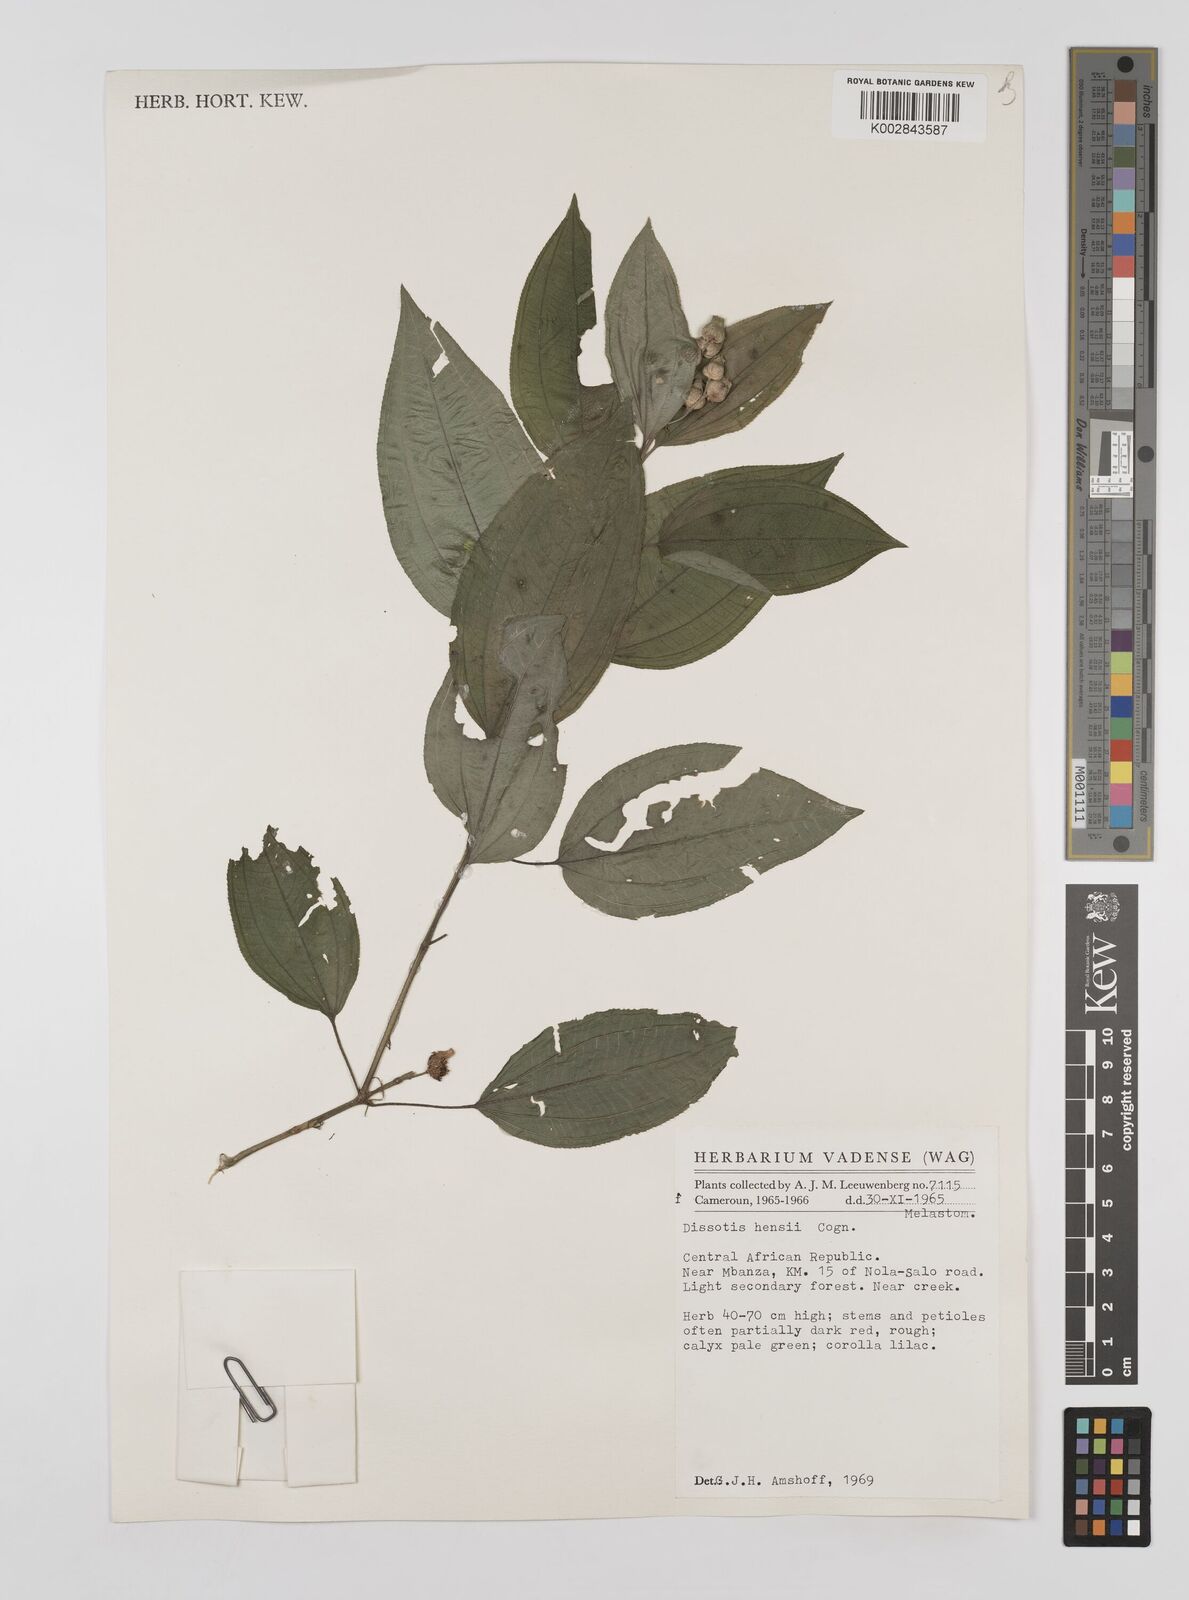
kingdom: Plantae
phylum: Tracheophyta
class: Magnoliopsida
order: Myrtales
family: Melastomataceae
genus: Dupineta
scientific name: Dupineta hensii
